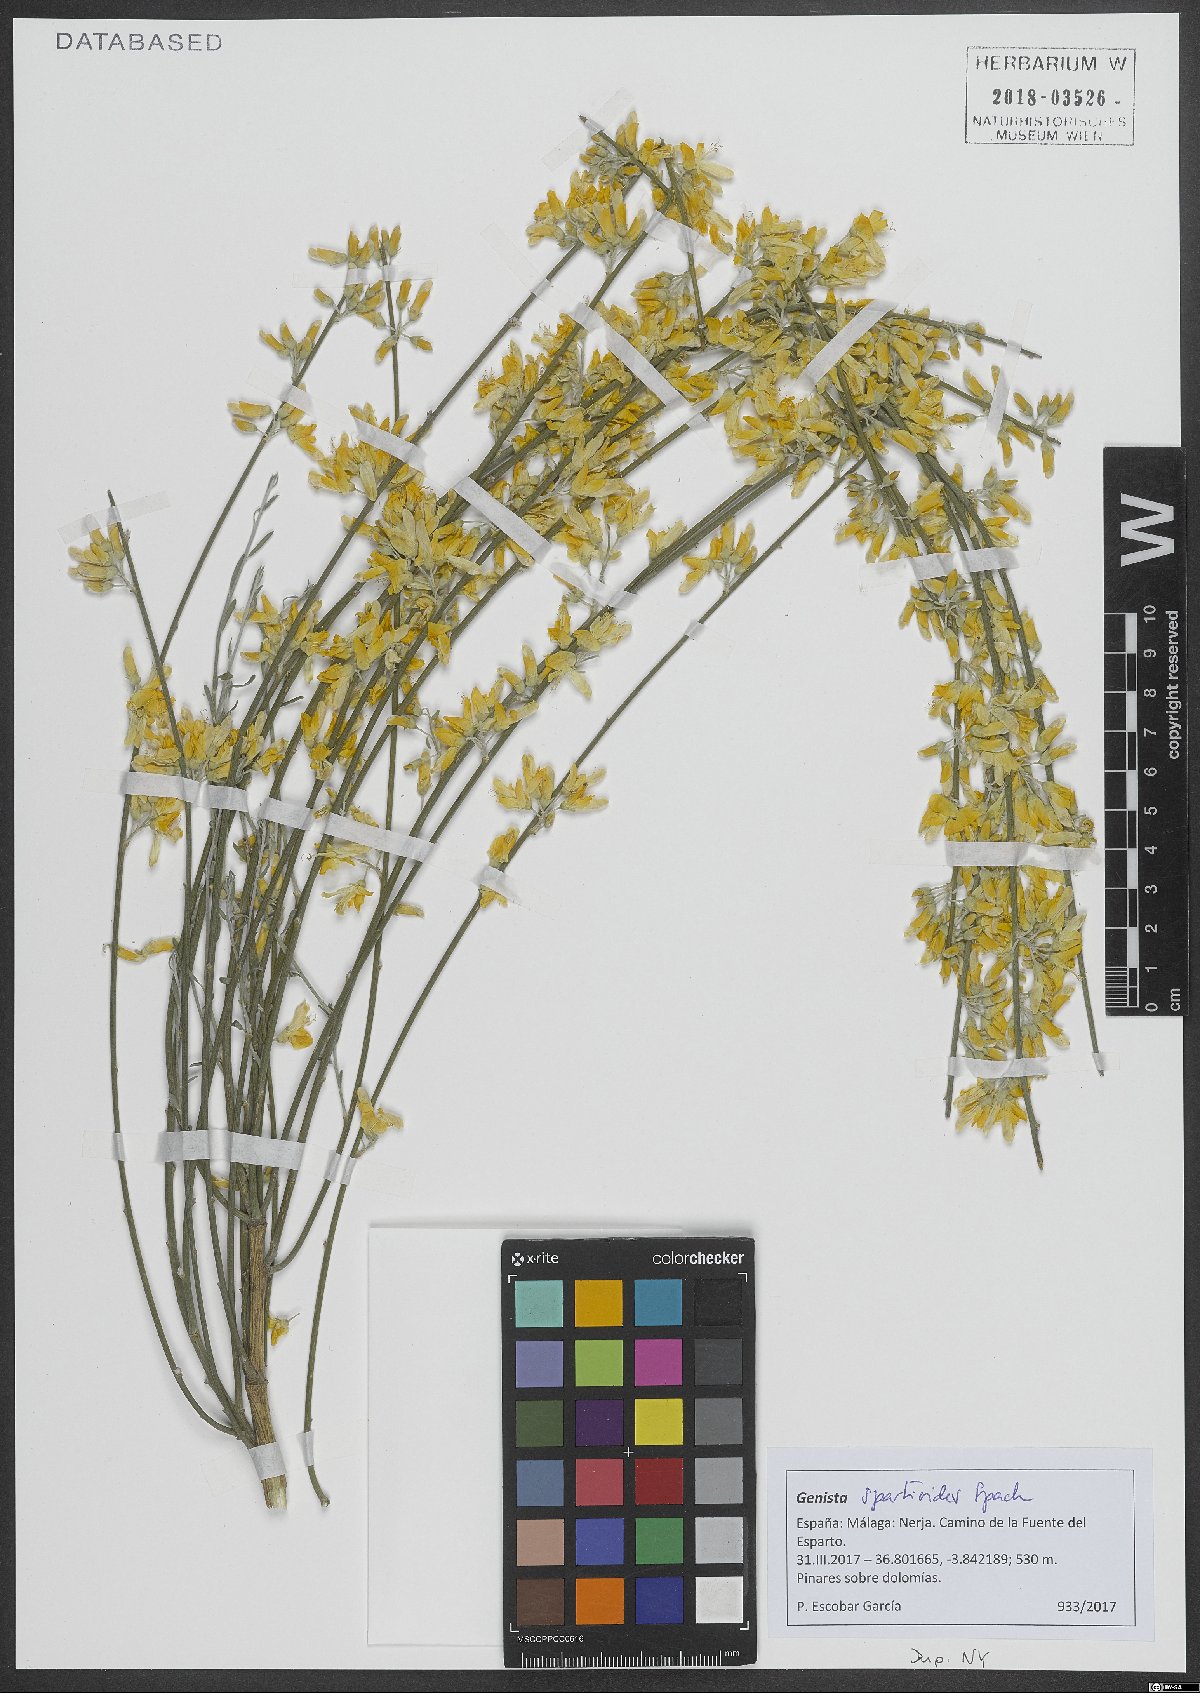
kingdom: Plantae
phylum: Tracheophyta
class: Magnoliopsida
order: Fabales
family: Fabaceae
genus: Genista
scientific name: Genista spartioides
